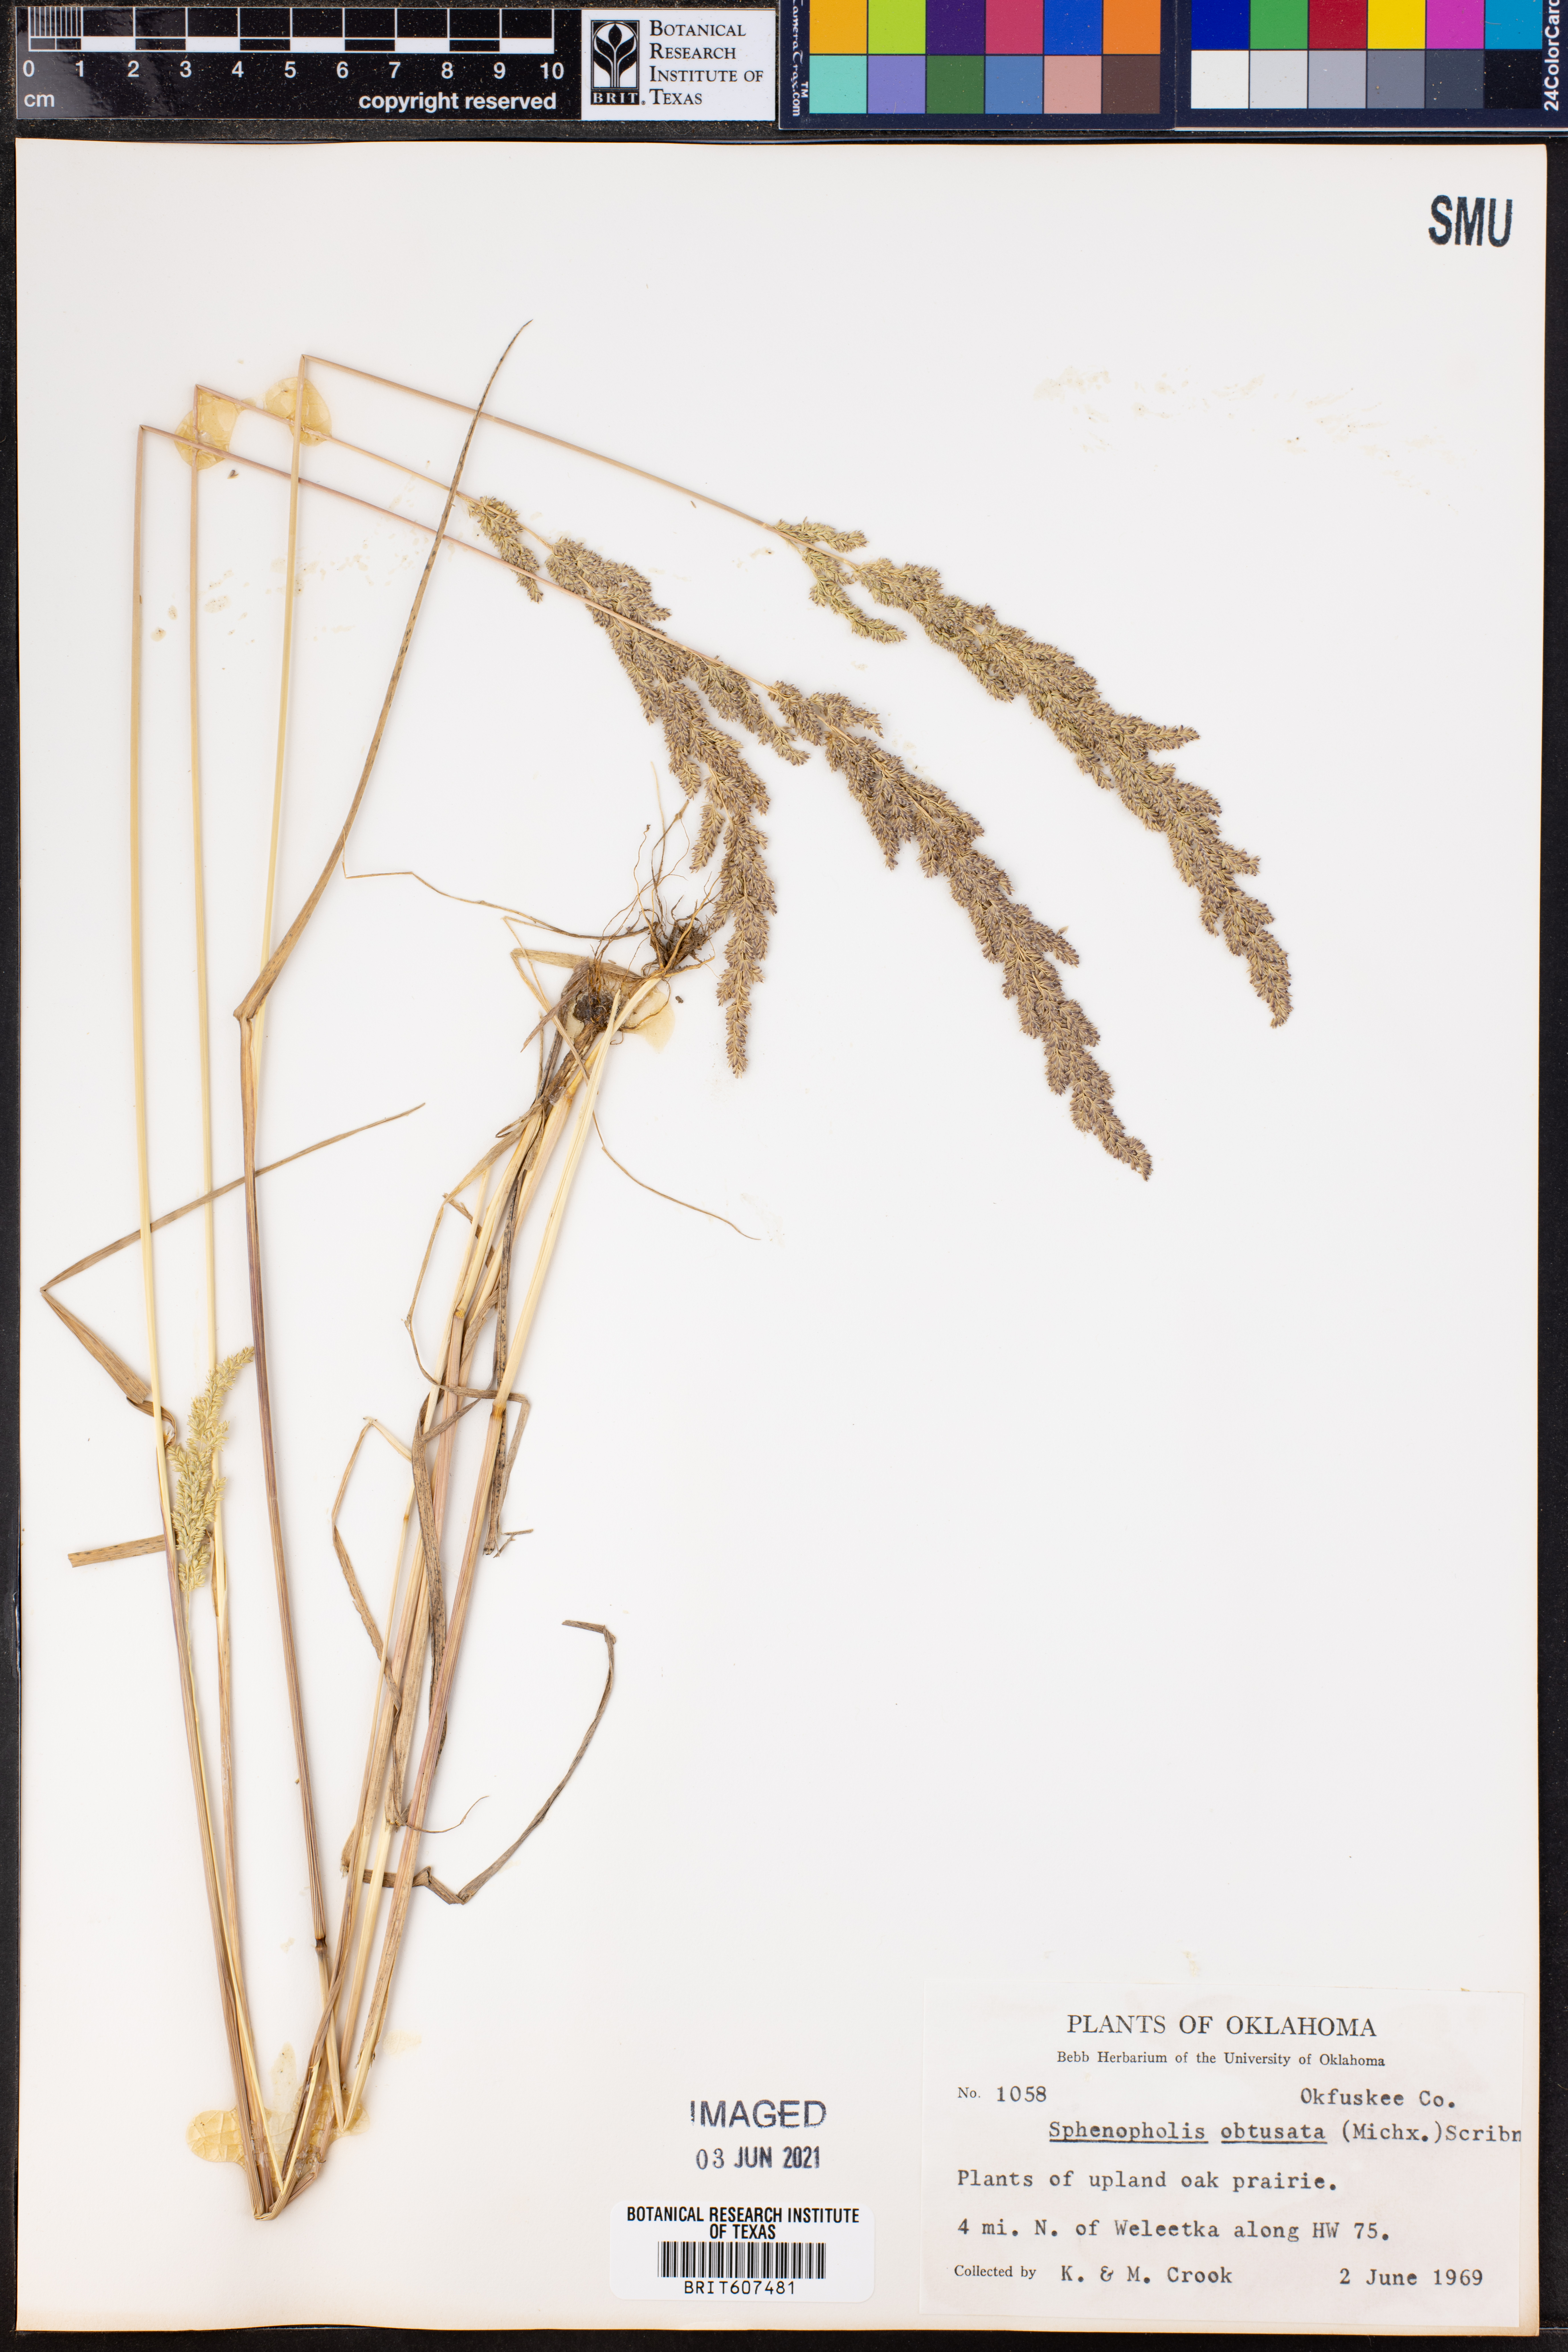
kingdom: Plantae
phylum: Tracheophyta
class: Liliopsida
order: Poales
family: Poaceae
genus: Sphenopholis
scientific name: Sphenopholis obtusata
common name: Prairie grass
